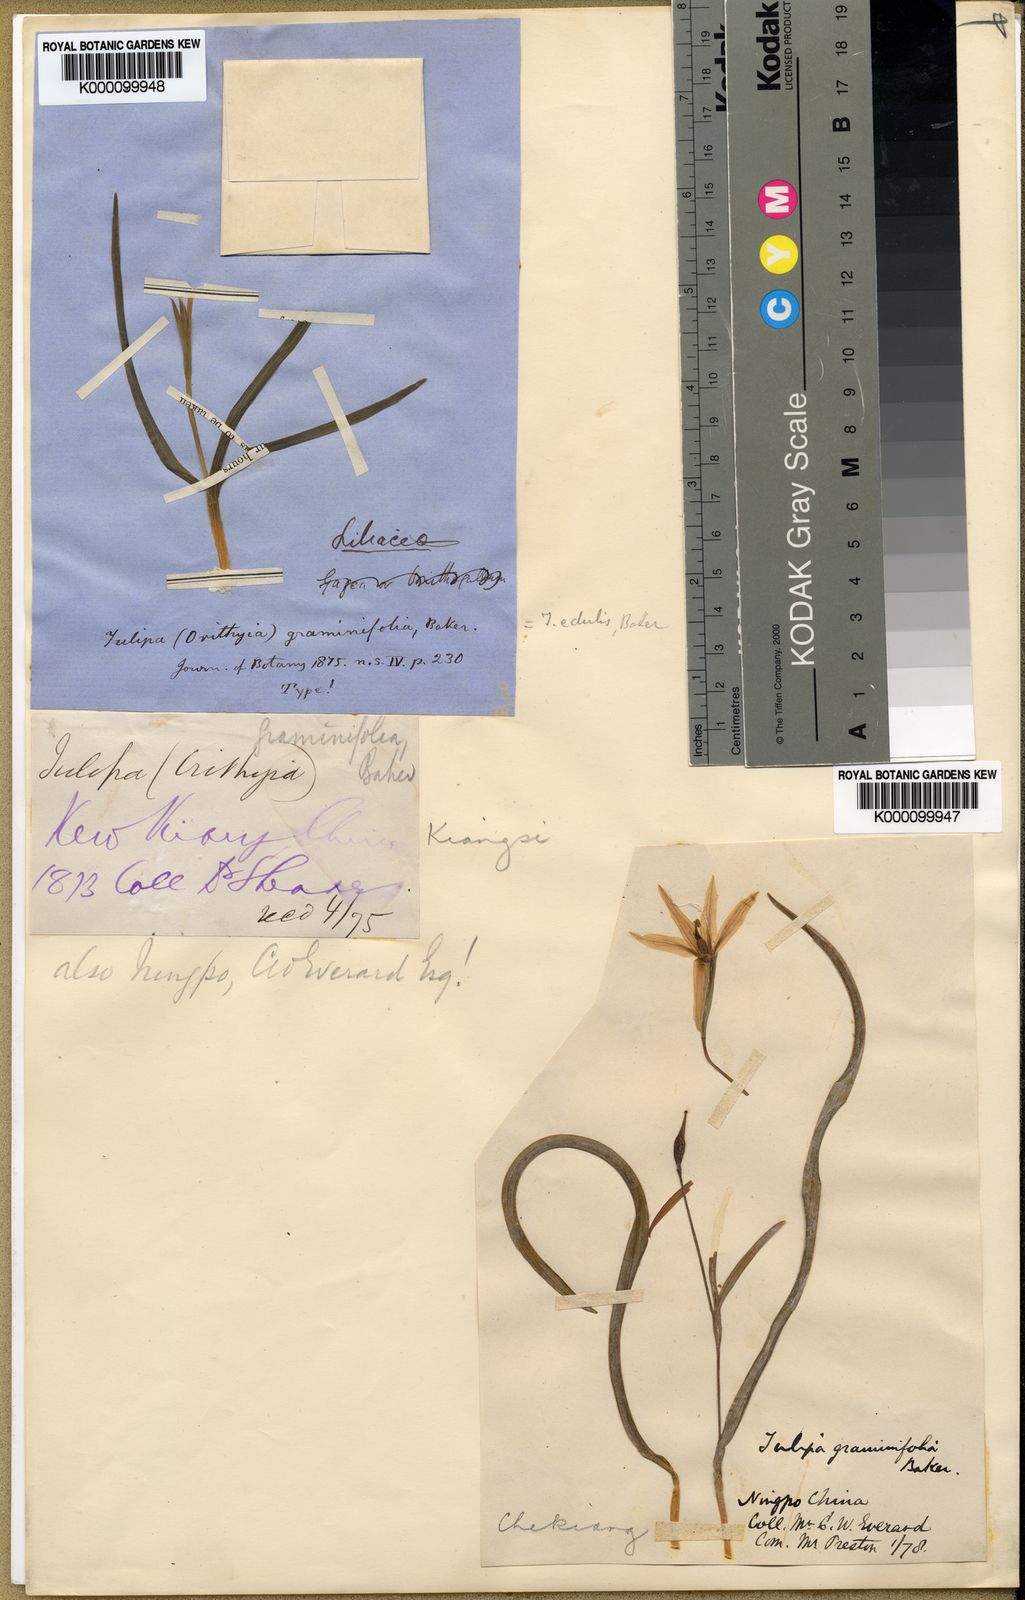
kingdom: Plantae
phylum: Tracheophyta
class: Liliopsida
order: Liliales
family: Liliaceae
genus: Amana
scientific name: Amana edulis
